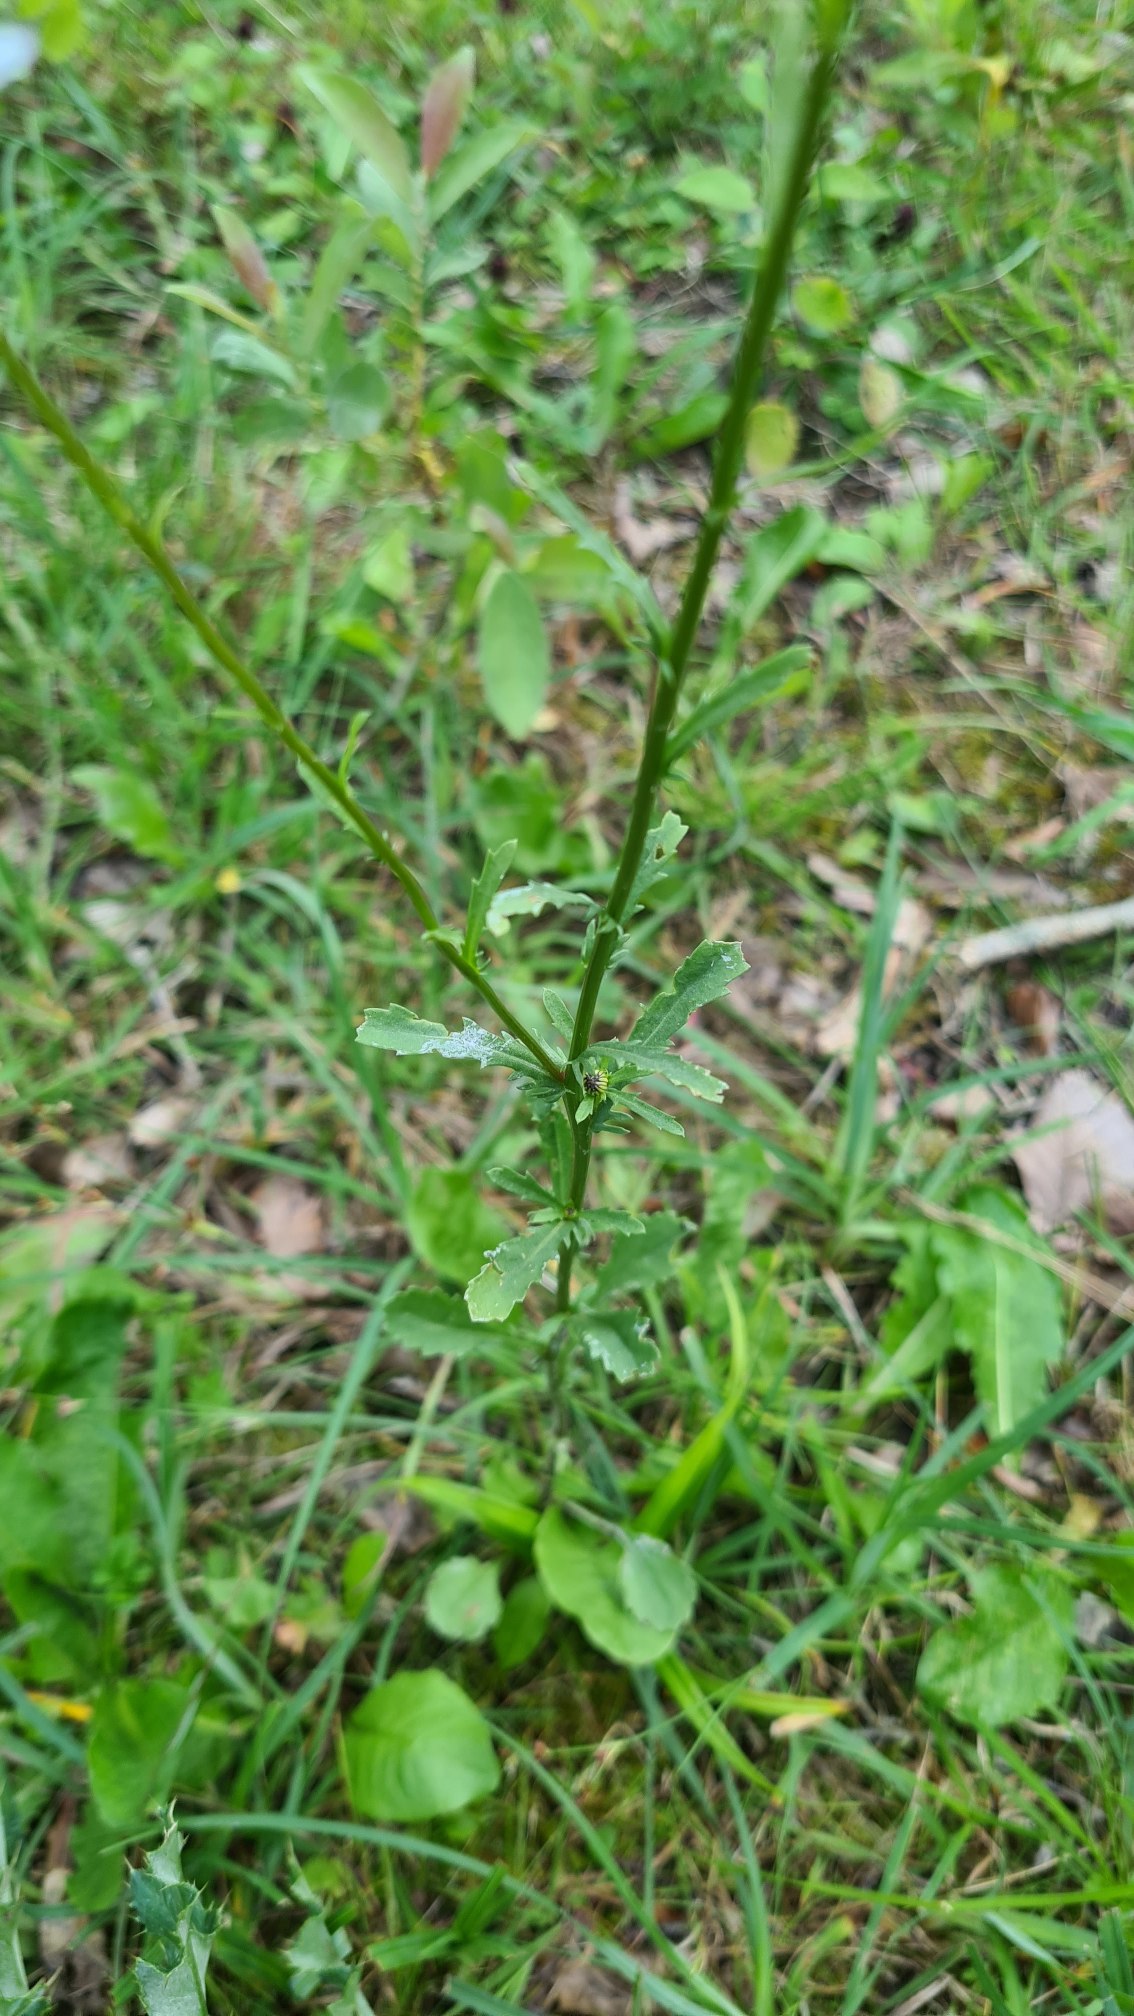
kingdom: Plantae
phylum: Tracheophyta
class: Magnoliopsida
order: Asterales
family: Asteraceae
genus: Leucanthemum
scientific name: Leucanthemum vulgare
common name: Hvid okseøje
